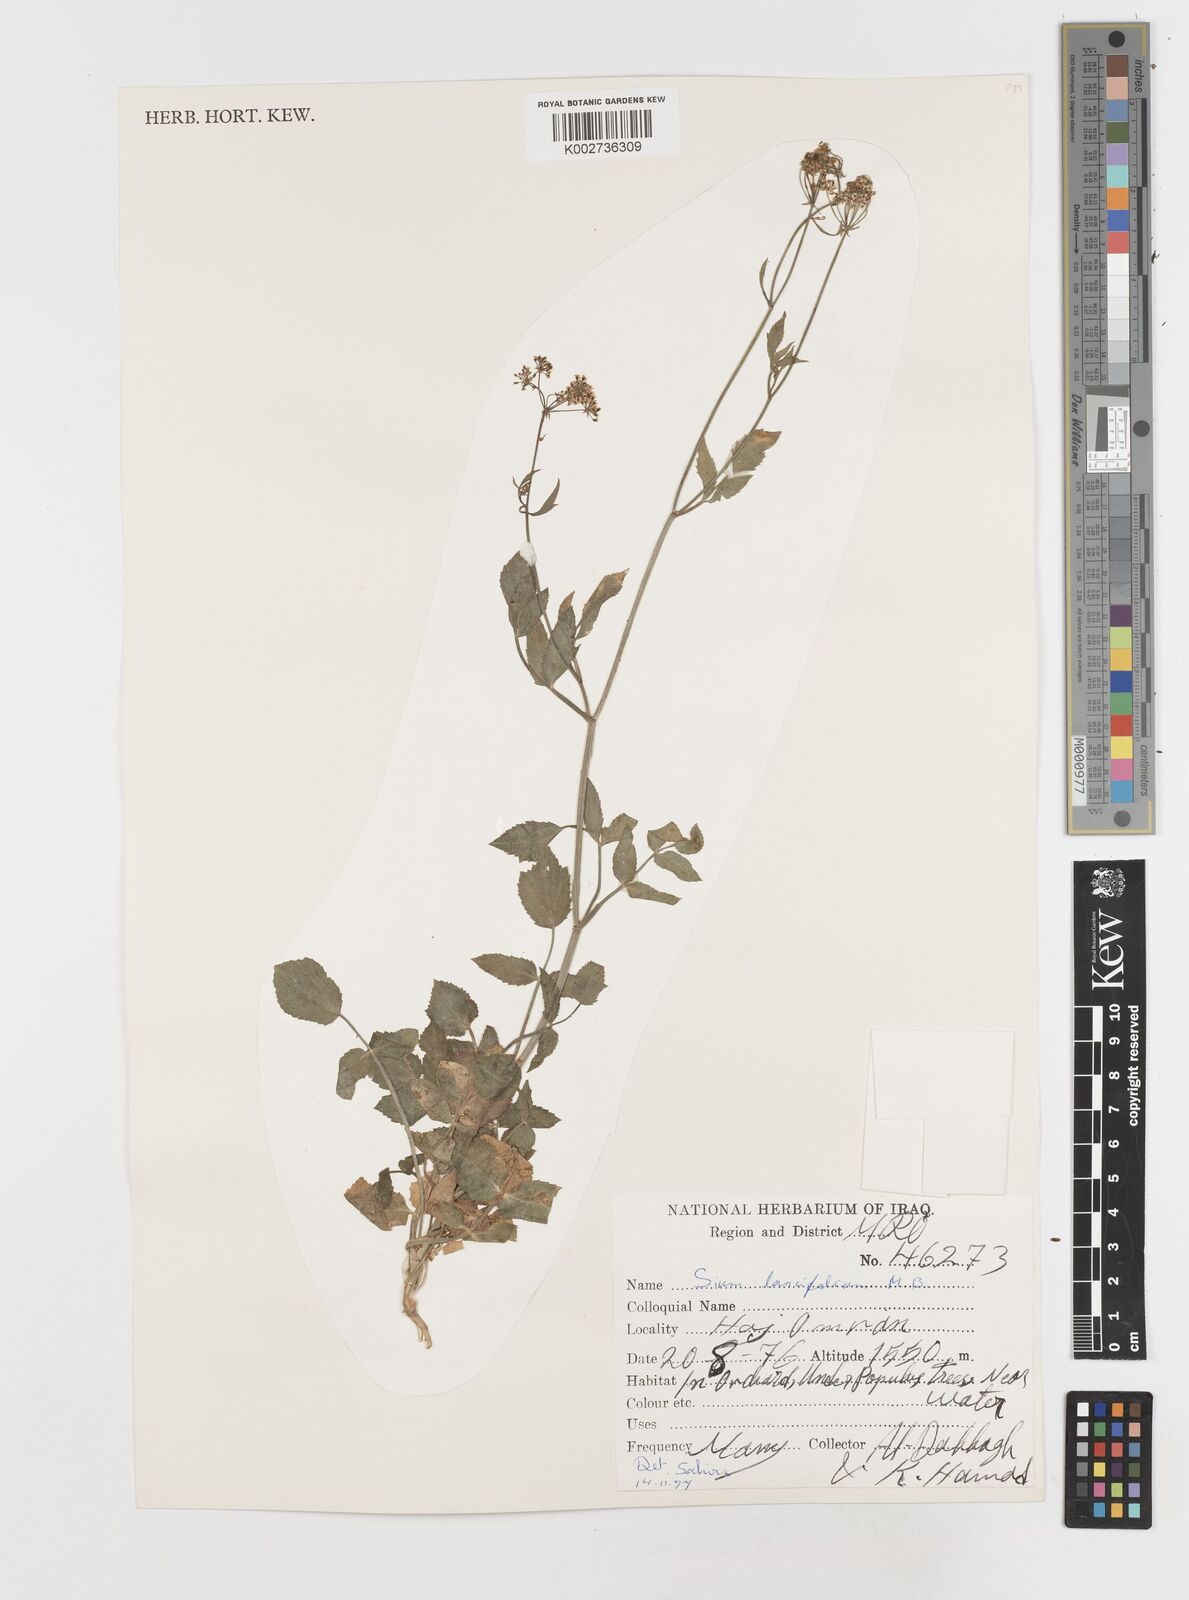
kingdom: Plantae
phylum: Tracheophyta
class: Magnoliopsida
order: Apiales
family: Apiaceae
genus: Sium
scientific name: Sium sisarum
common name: Skirret
